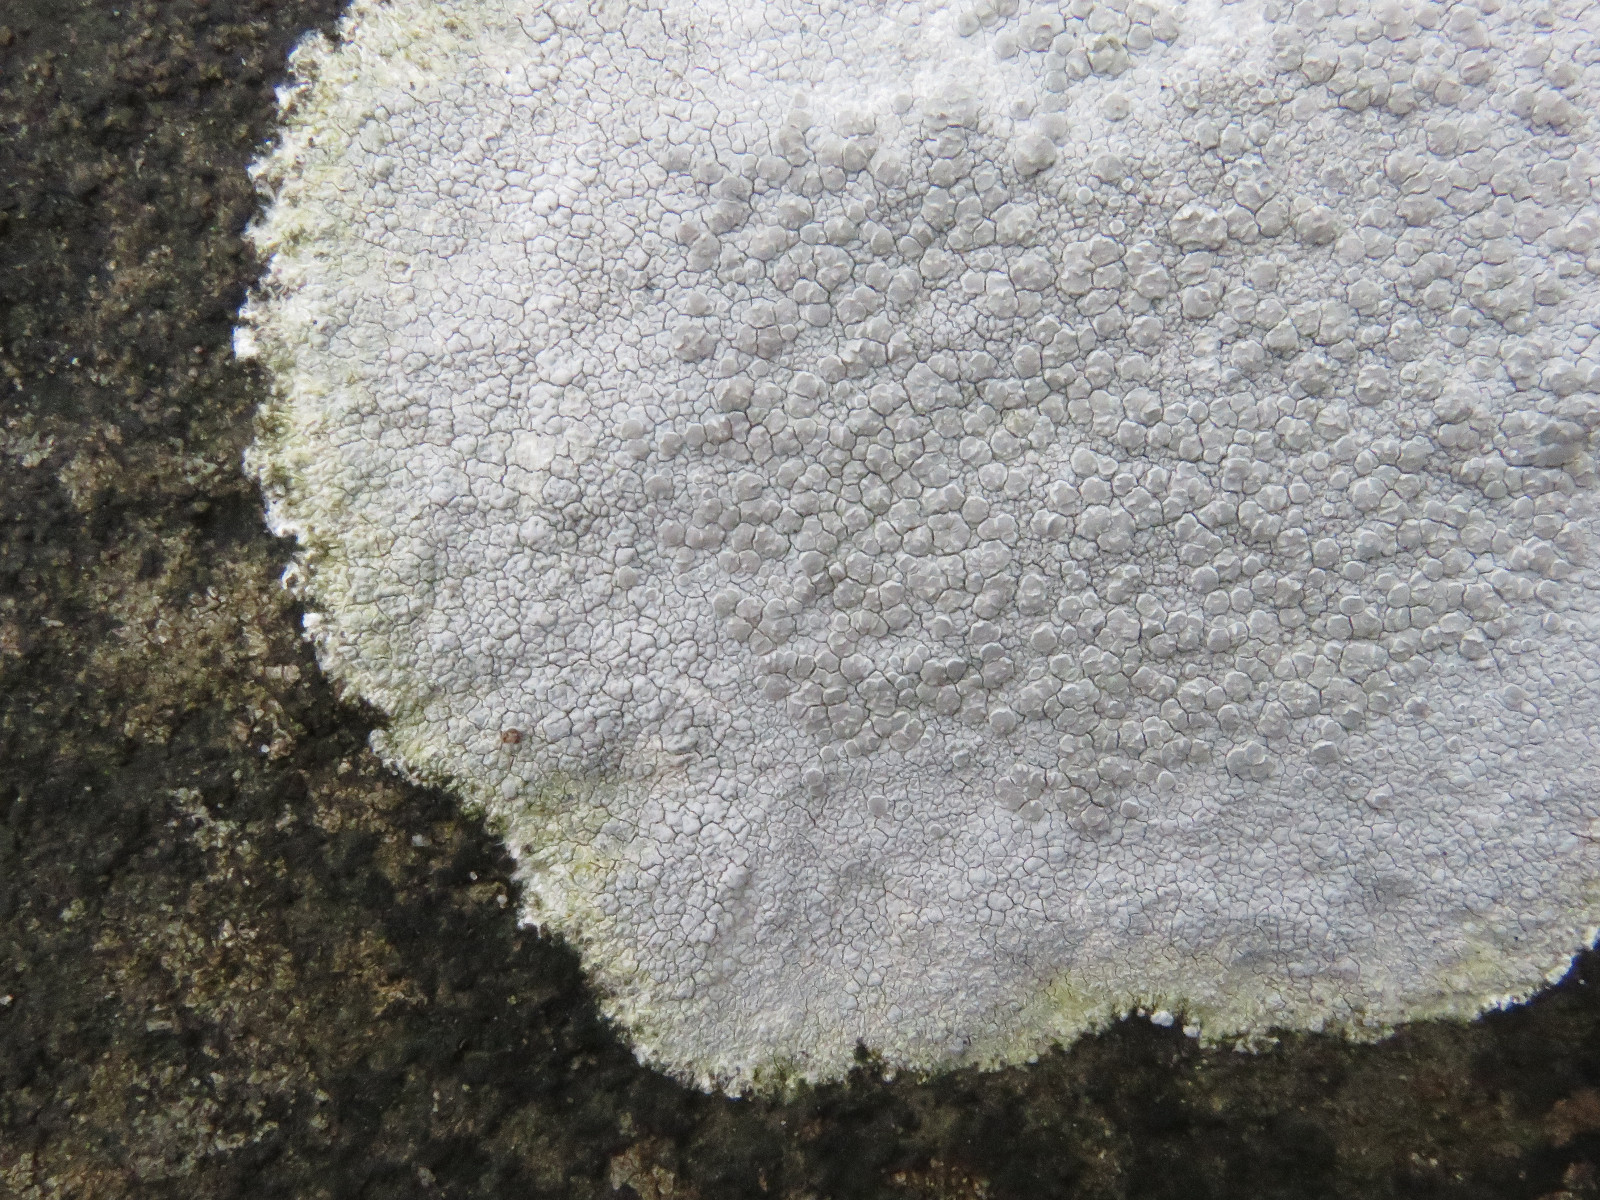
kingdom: Fungi
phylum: Ascomycota
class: Lecanoromycetes
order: Lecanorales
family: Lecanoraceae
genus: Glaucomaria
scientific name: Glaucomaria rupicola
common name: stengærde-kantskivelav
